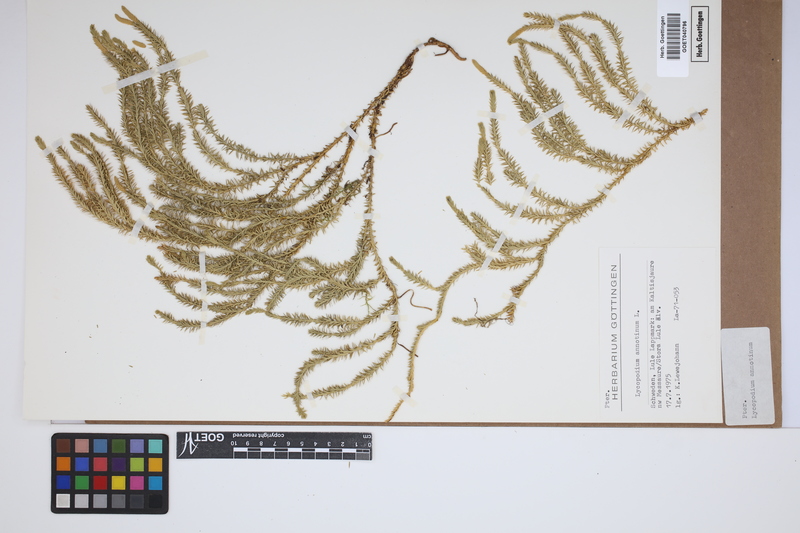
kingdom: Plantae
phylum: Tracheophyta
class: Lycopodiopsida
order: Lycopodiales
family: Lycopodiaceae
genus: Spinulum
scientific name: Spinulum annotinum
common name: Interrupted club-moss
